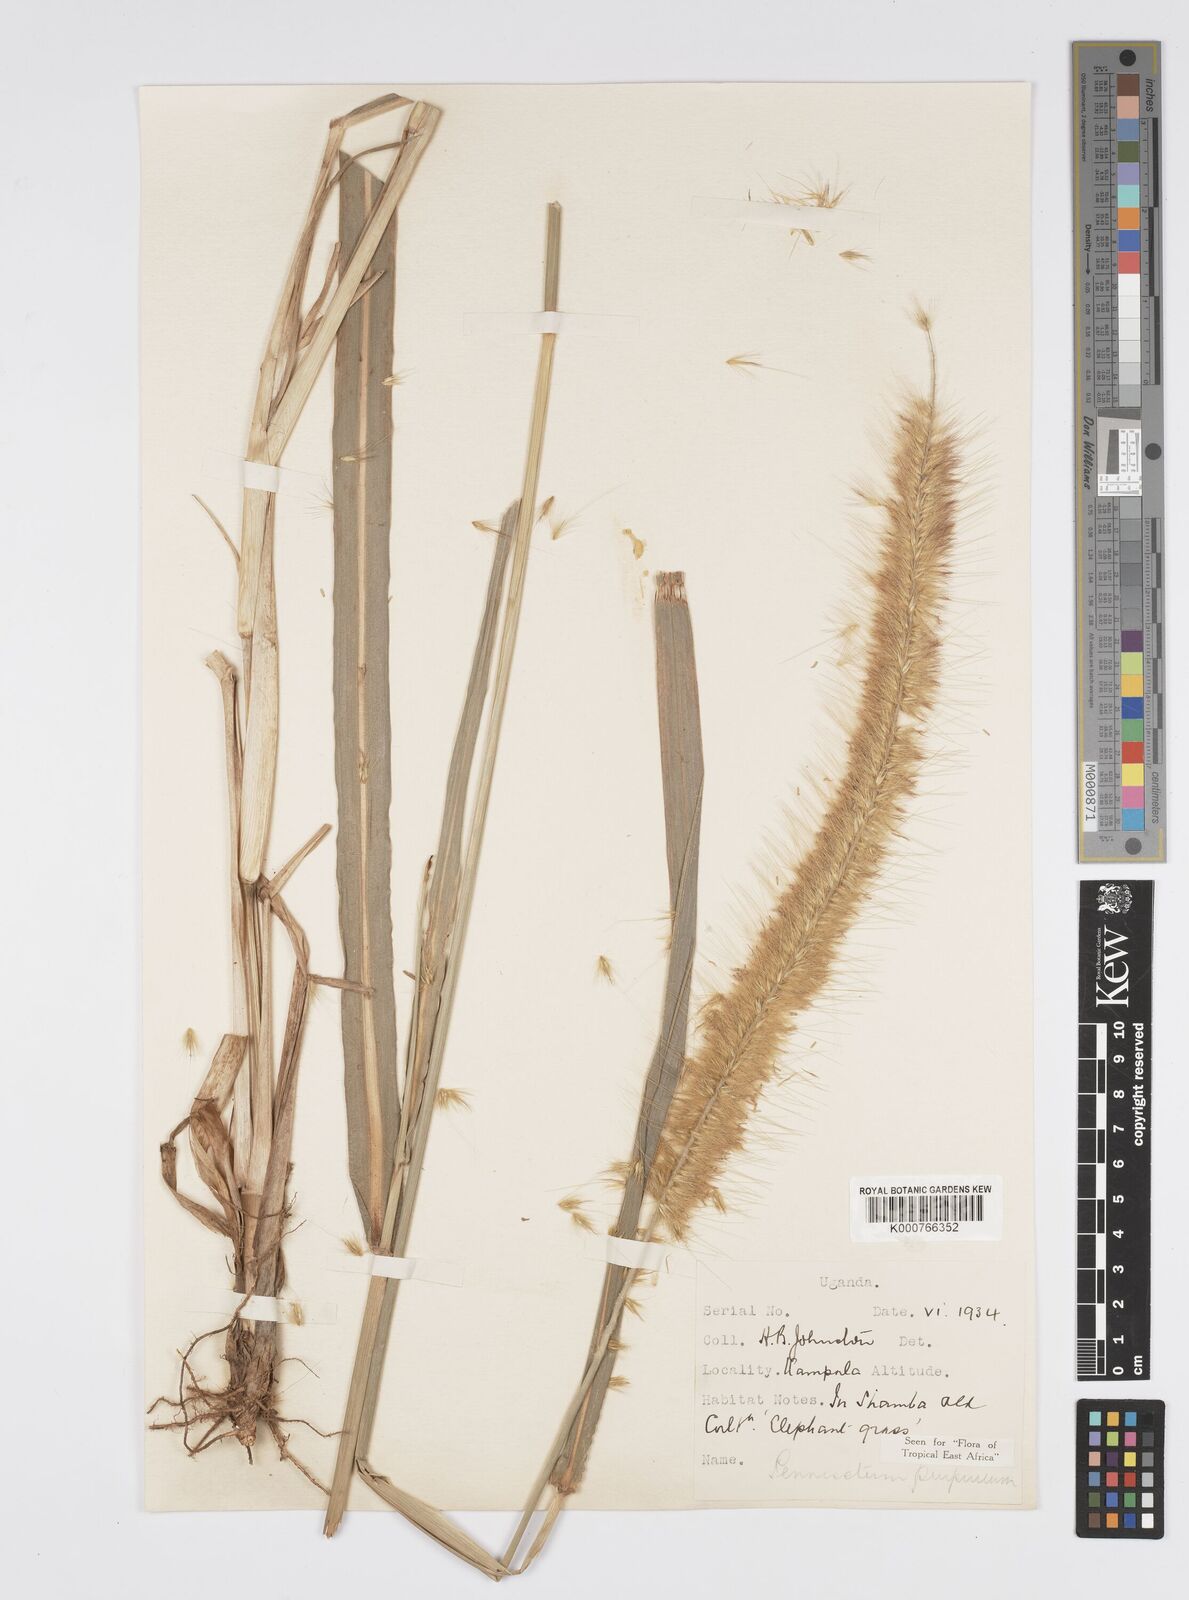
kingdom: Plantae
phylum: Tracheophyta
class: Liliopsida
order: Poales
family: Poaceae
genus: Cenchrus
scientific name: Cenchrus purpureus
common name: Elephant grass
